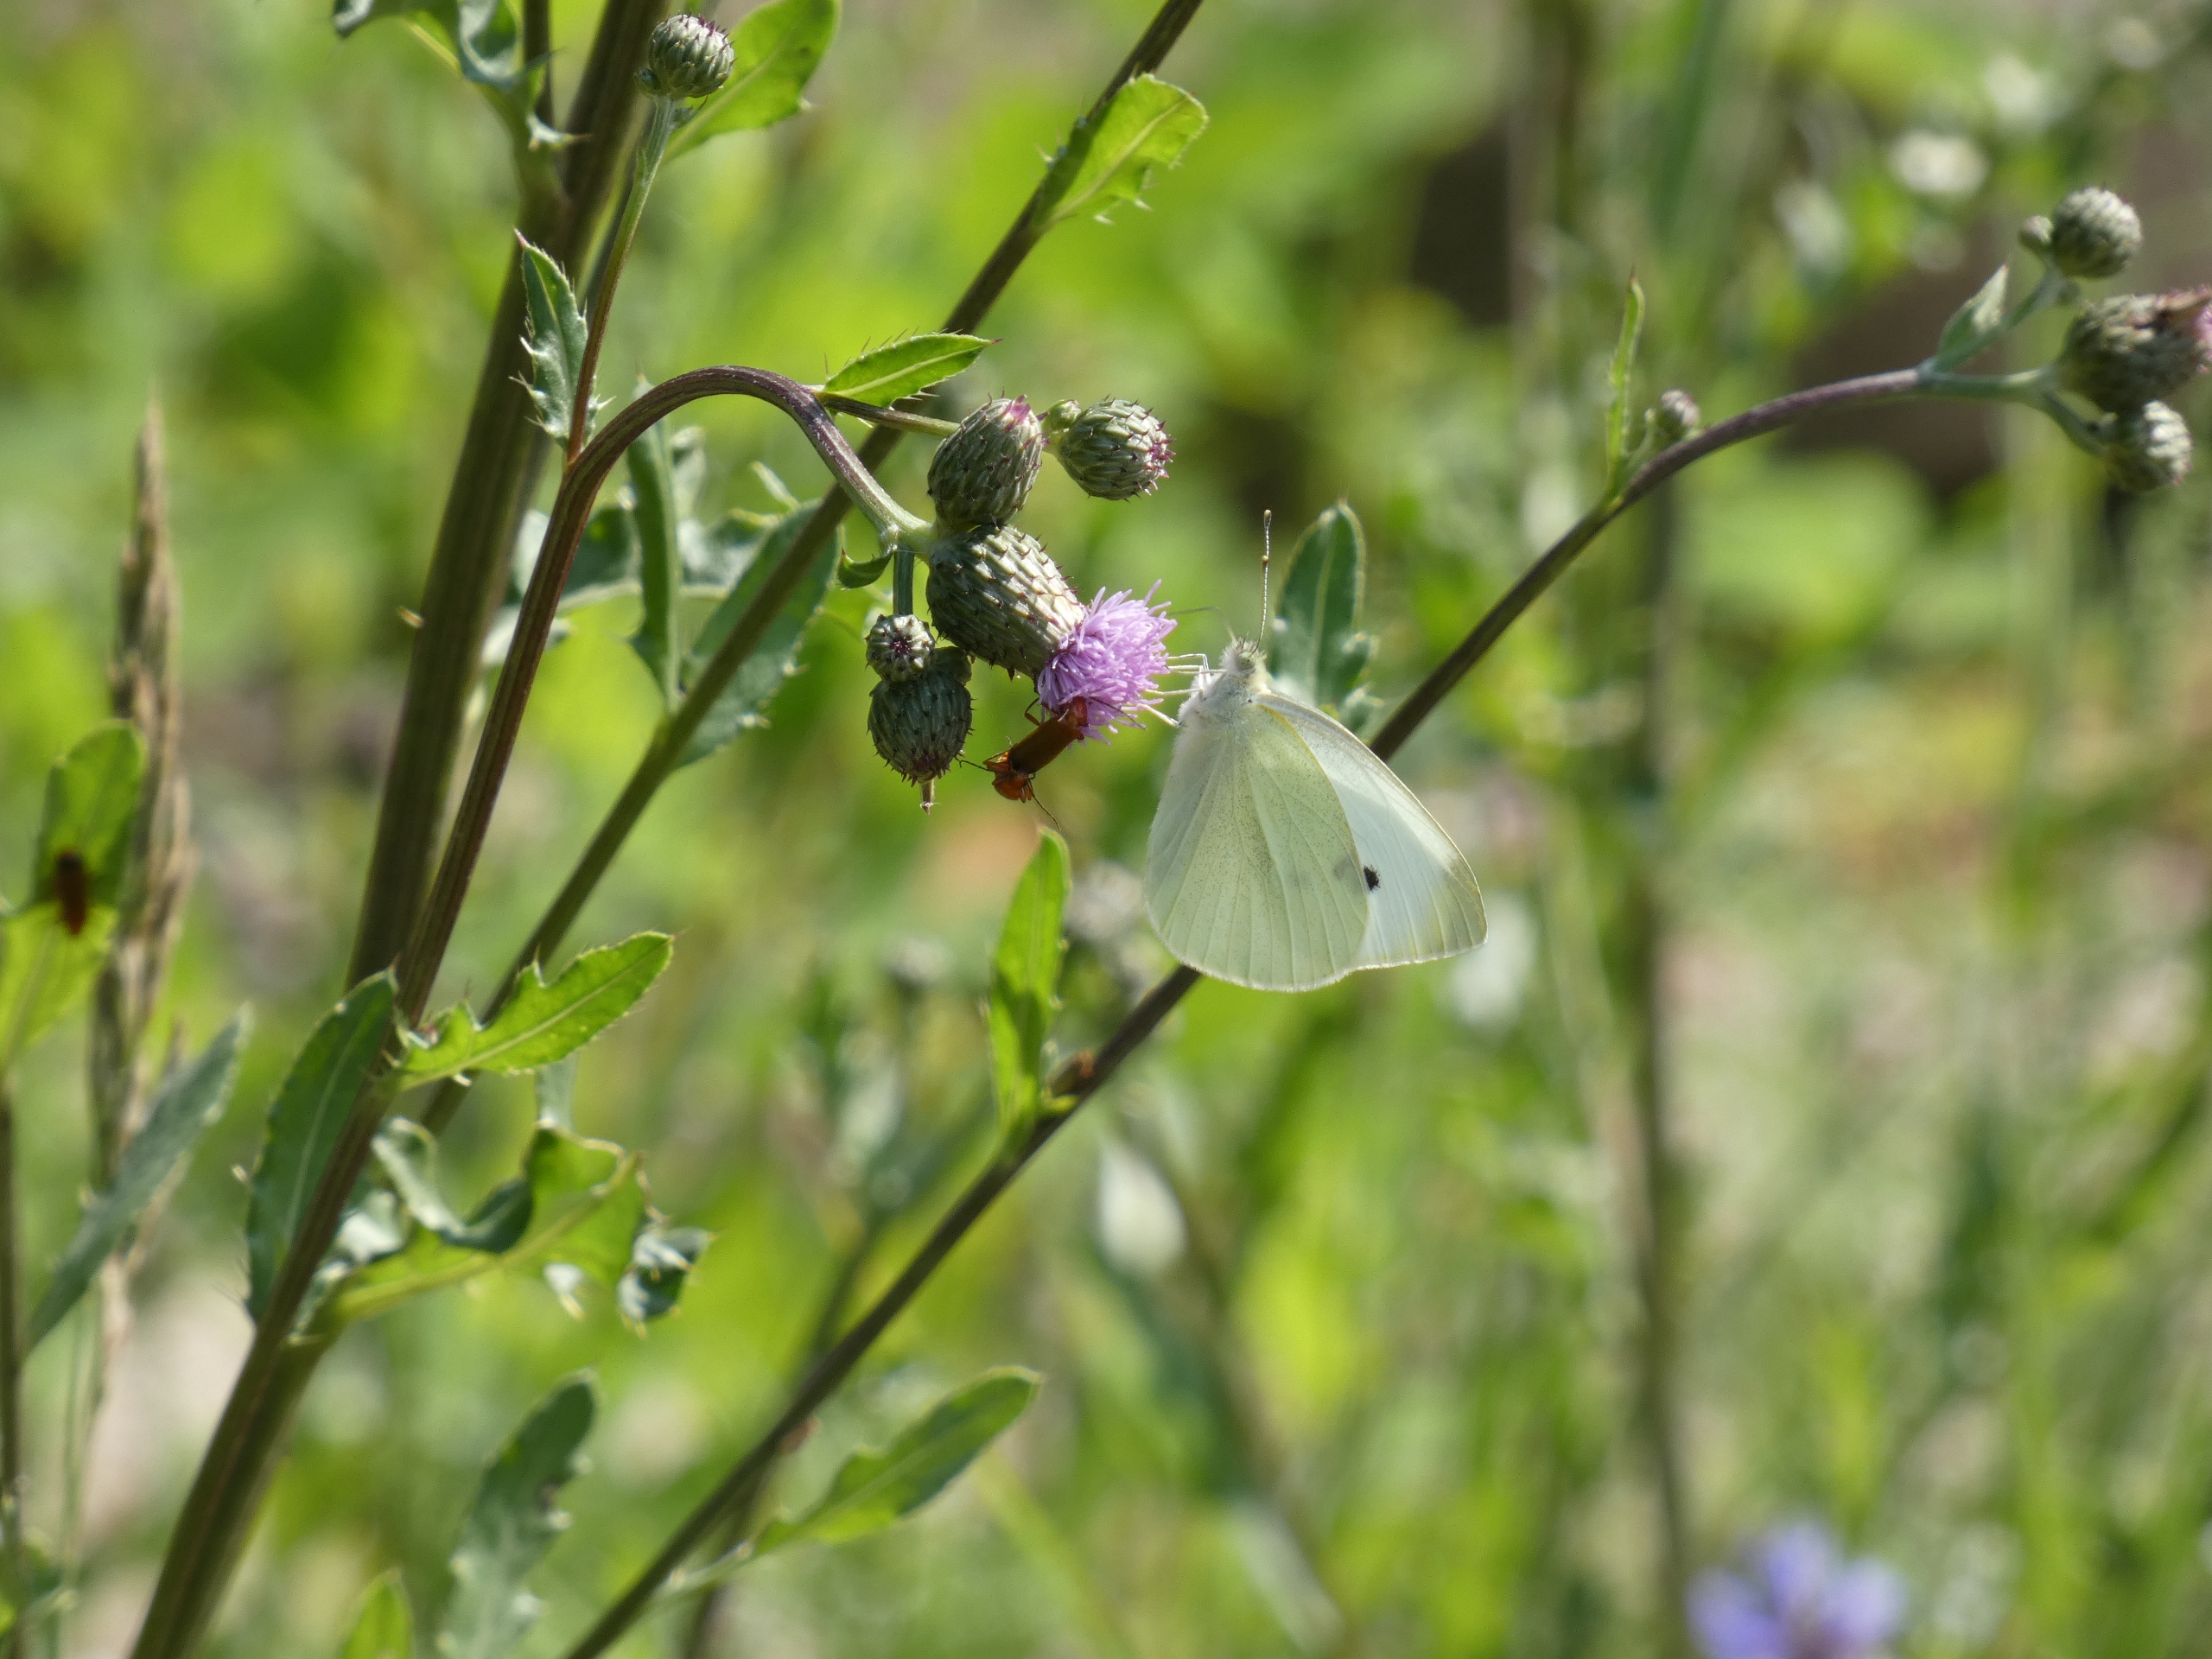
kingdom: Animalia
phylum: Arthropoda
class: Insecta
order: Lepidoptera
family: Pieridae
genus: Pieris
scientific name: Pieris rapae
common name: Lille kålsommerfugl
